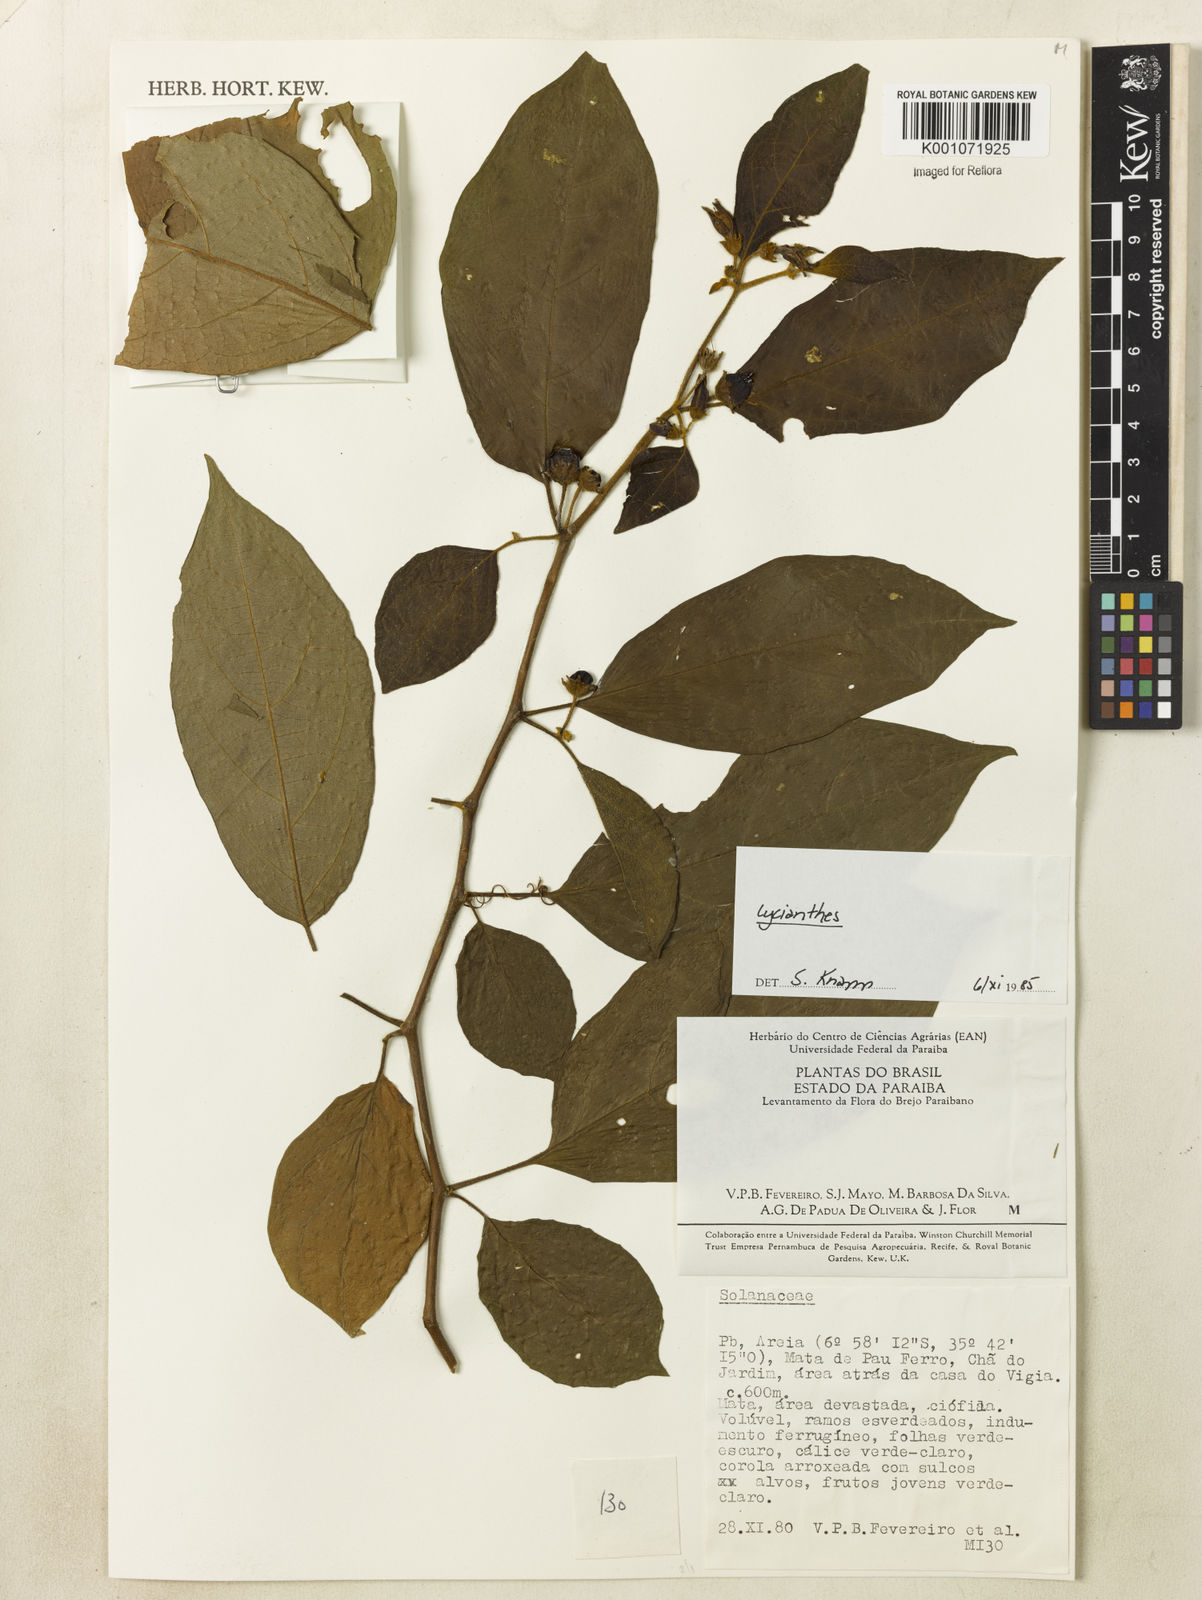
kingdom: Plantae
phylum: Tracheophyta
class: Magnoliopsida
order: Solanales
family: Solanaceae
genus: Lycianthes
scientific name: Lycianthes
